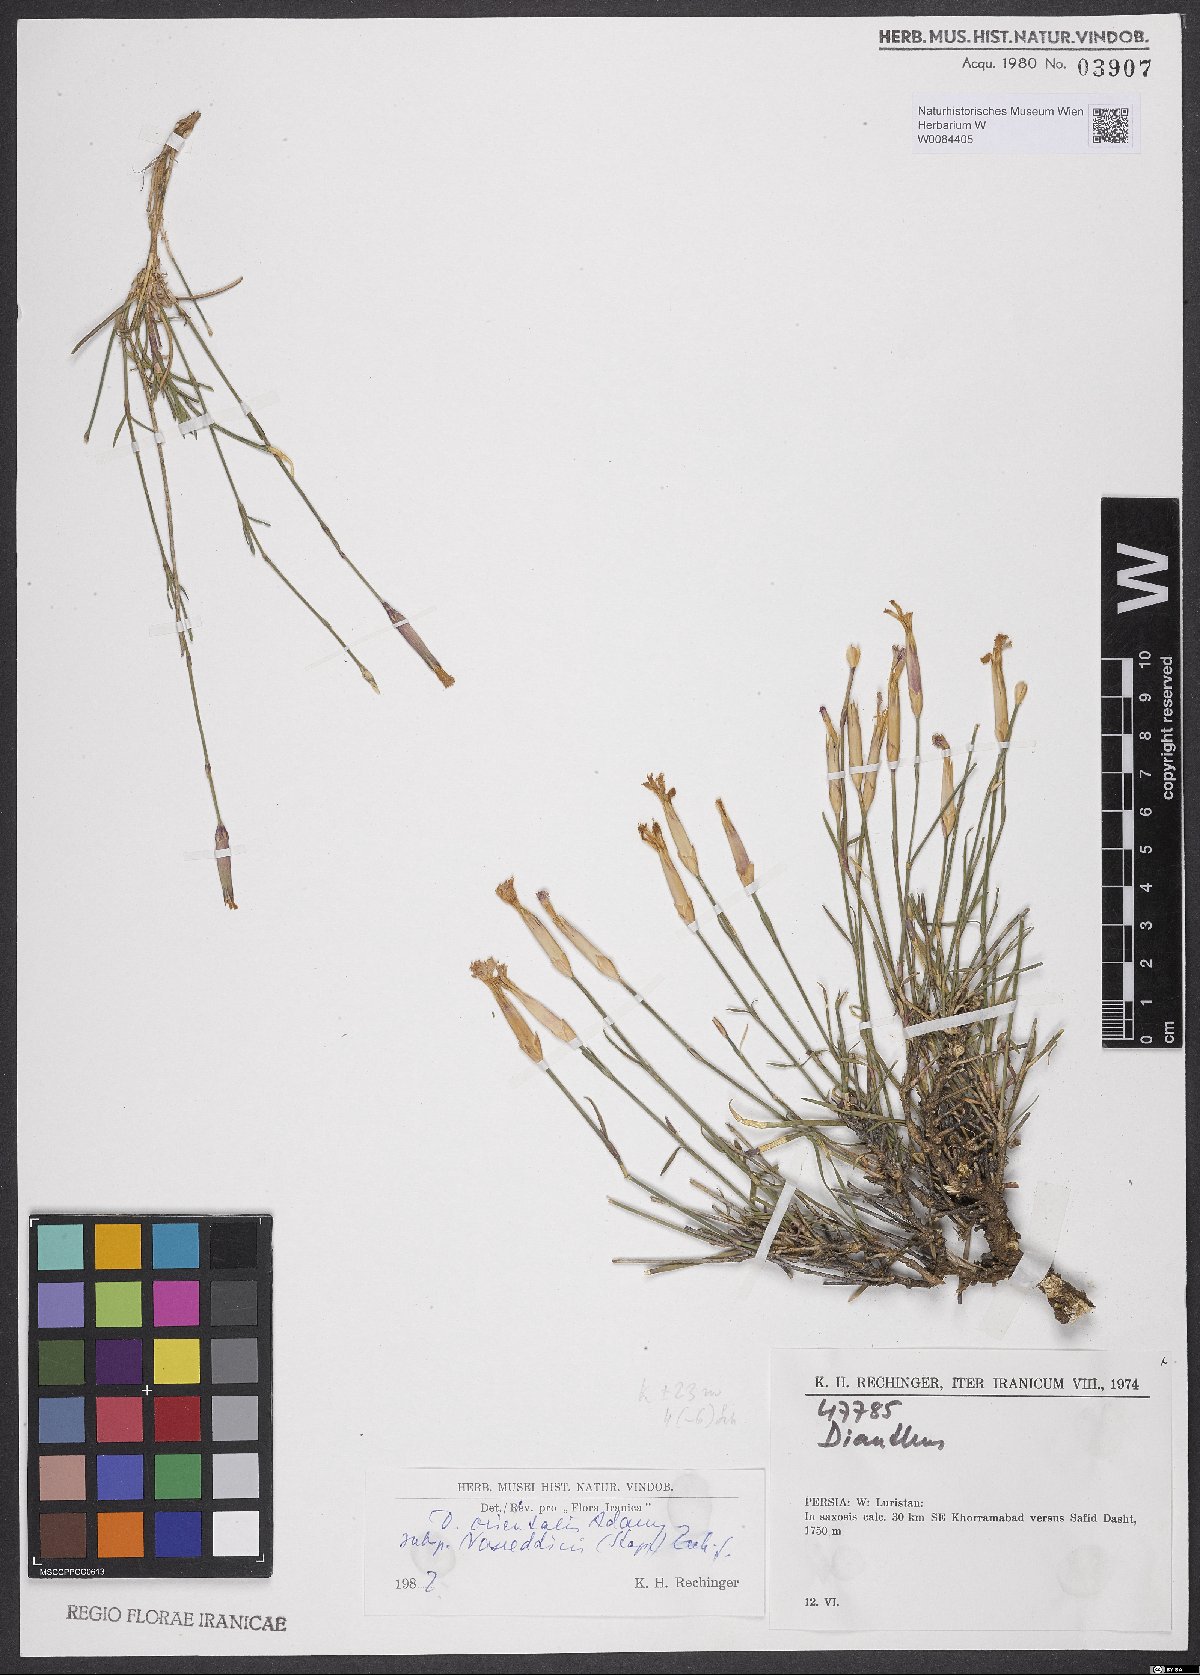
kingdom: Plantae
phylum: Tracheophyta
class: Magnoliopsida
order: Caryophyllales
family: Caryophyllaceae
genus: Dianthus
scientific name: Dianthus orientalis
